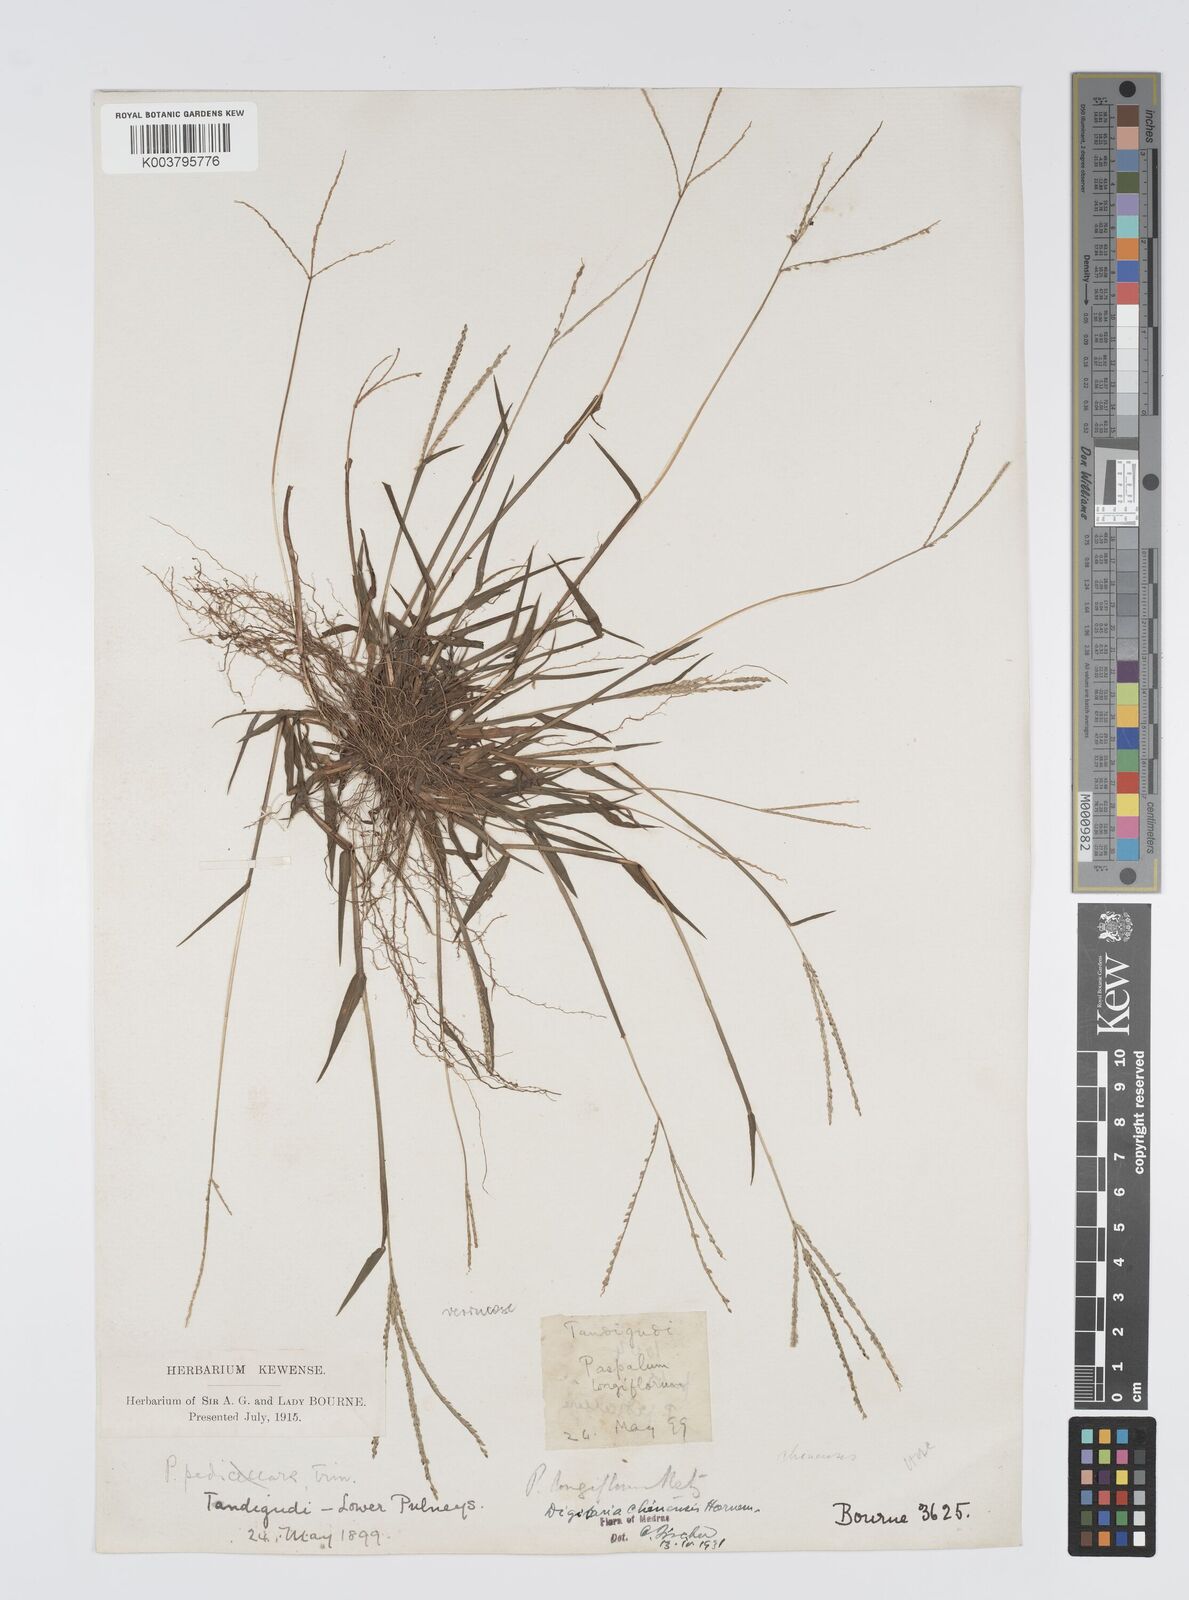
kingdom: Plantae
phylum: Tracheophyta
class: Liliopsida
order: Poales
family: Poaceae
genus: Digitaria
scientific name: Digitaria violascens
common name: Violet crabgrass
